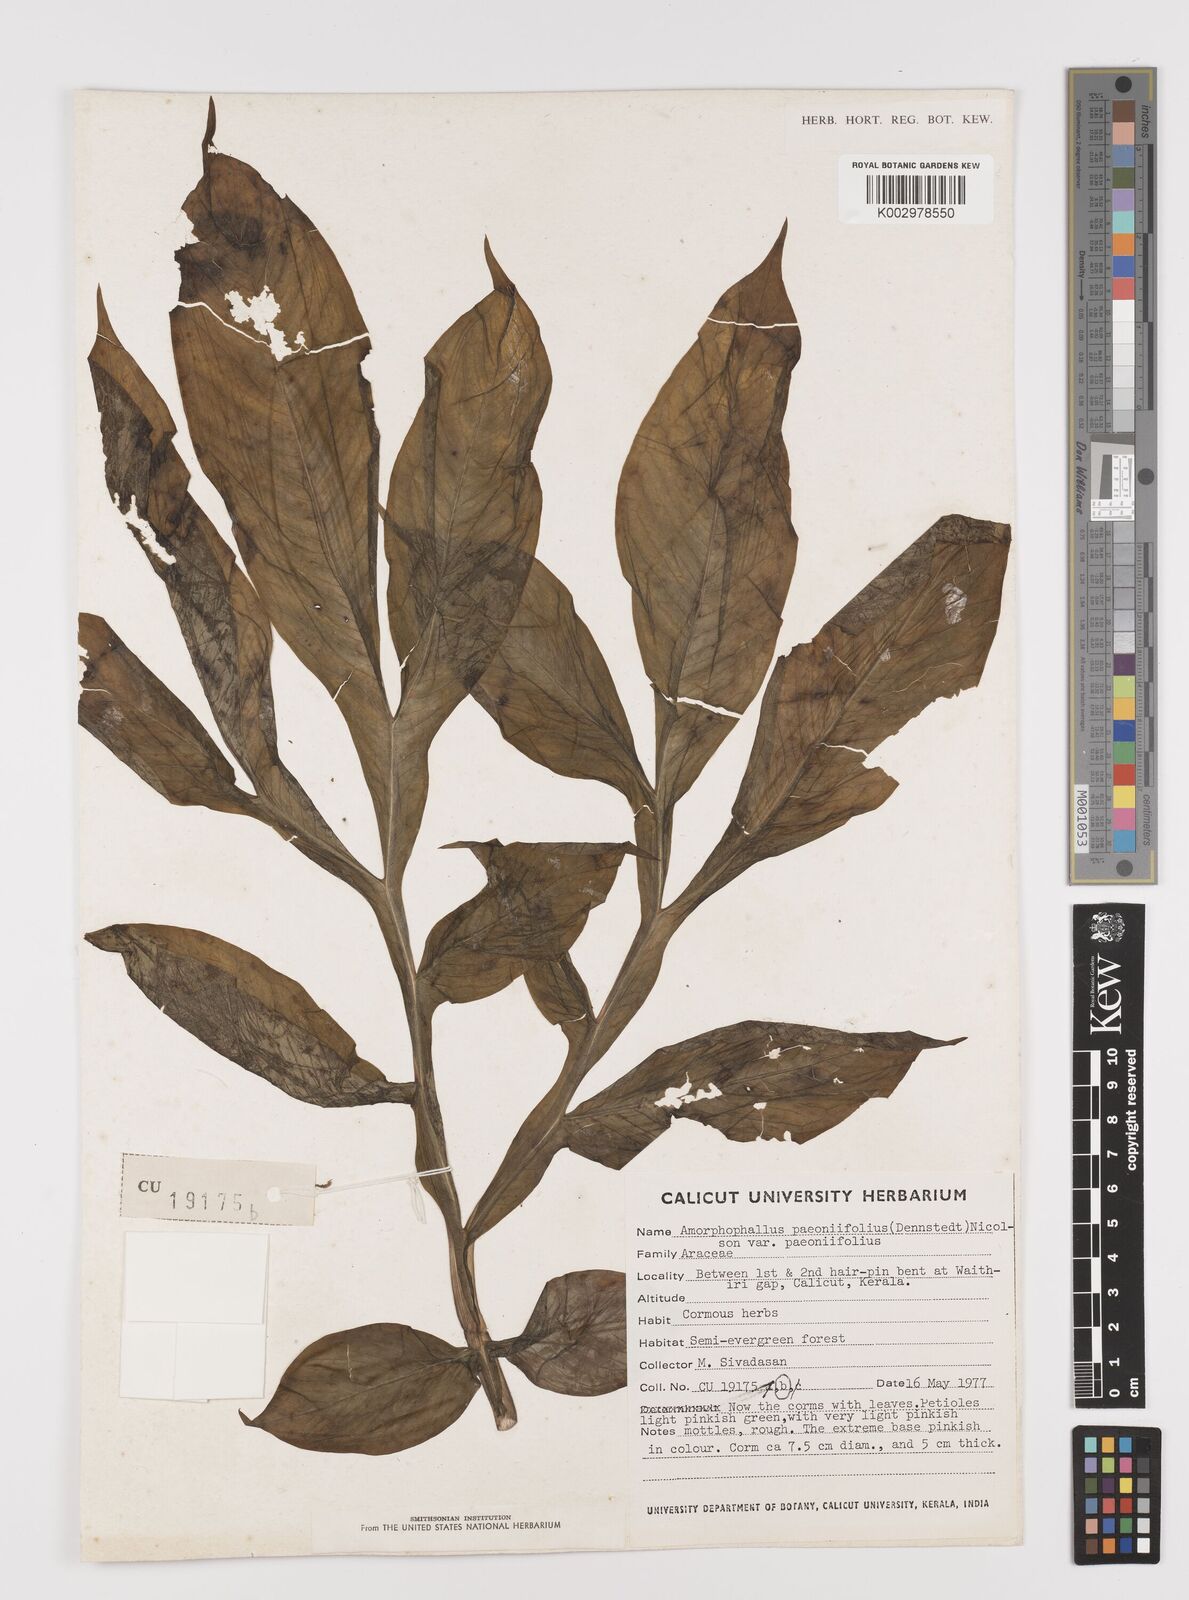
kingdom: Plantae
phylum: Tracheophyta
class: Liliopsida
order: Alismatales
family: Araceae
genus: Amorphophallus
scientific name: Amorphophallus paeoniifolius
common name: Telinga-potato
